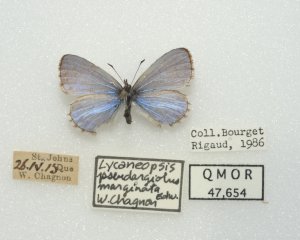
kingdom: Animalia
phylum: Arthropoda
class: Insecta
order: Lepidoptera
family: Lycaenidae
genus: Celastrina
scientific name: Celastrina lucia
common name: Northern Spring Azure
